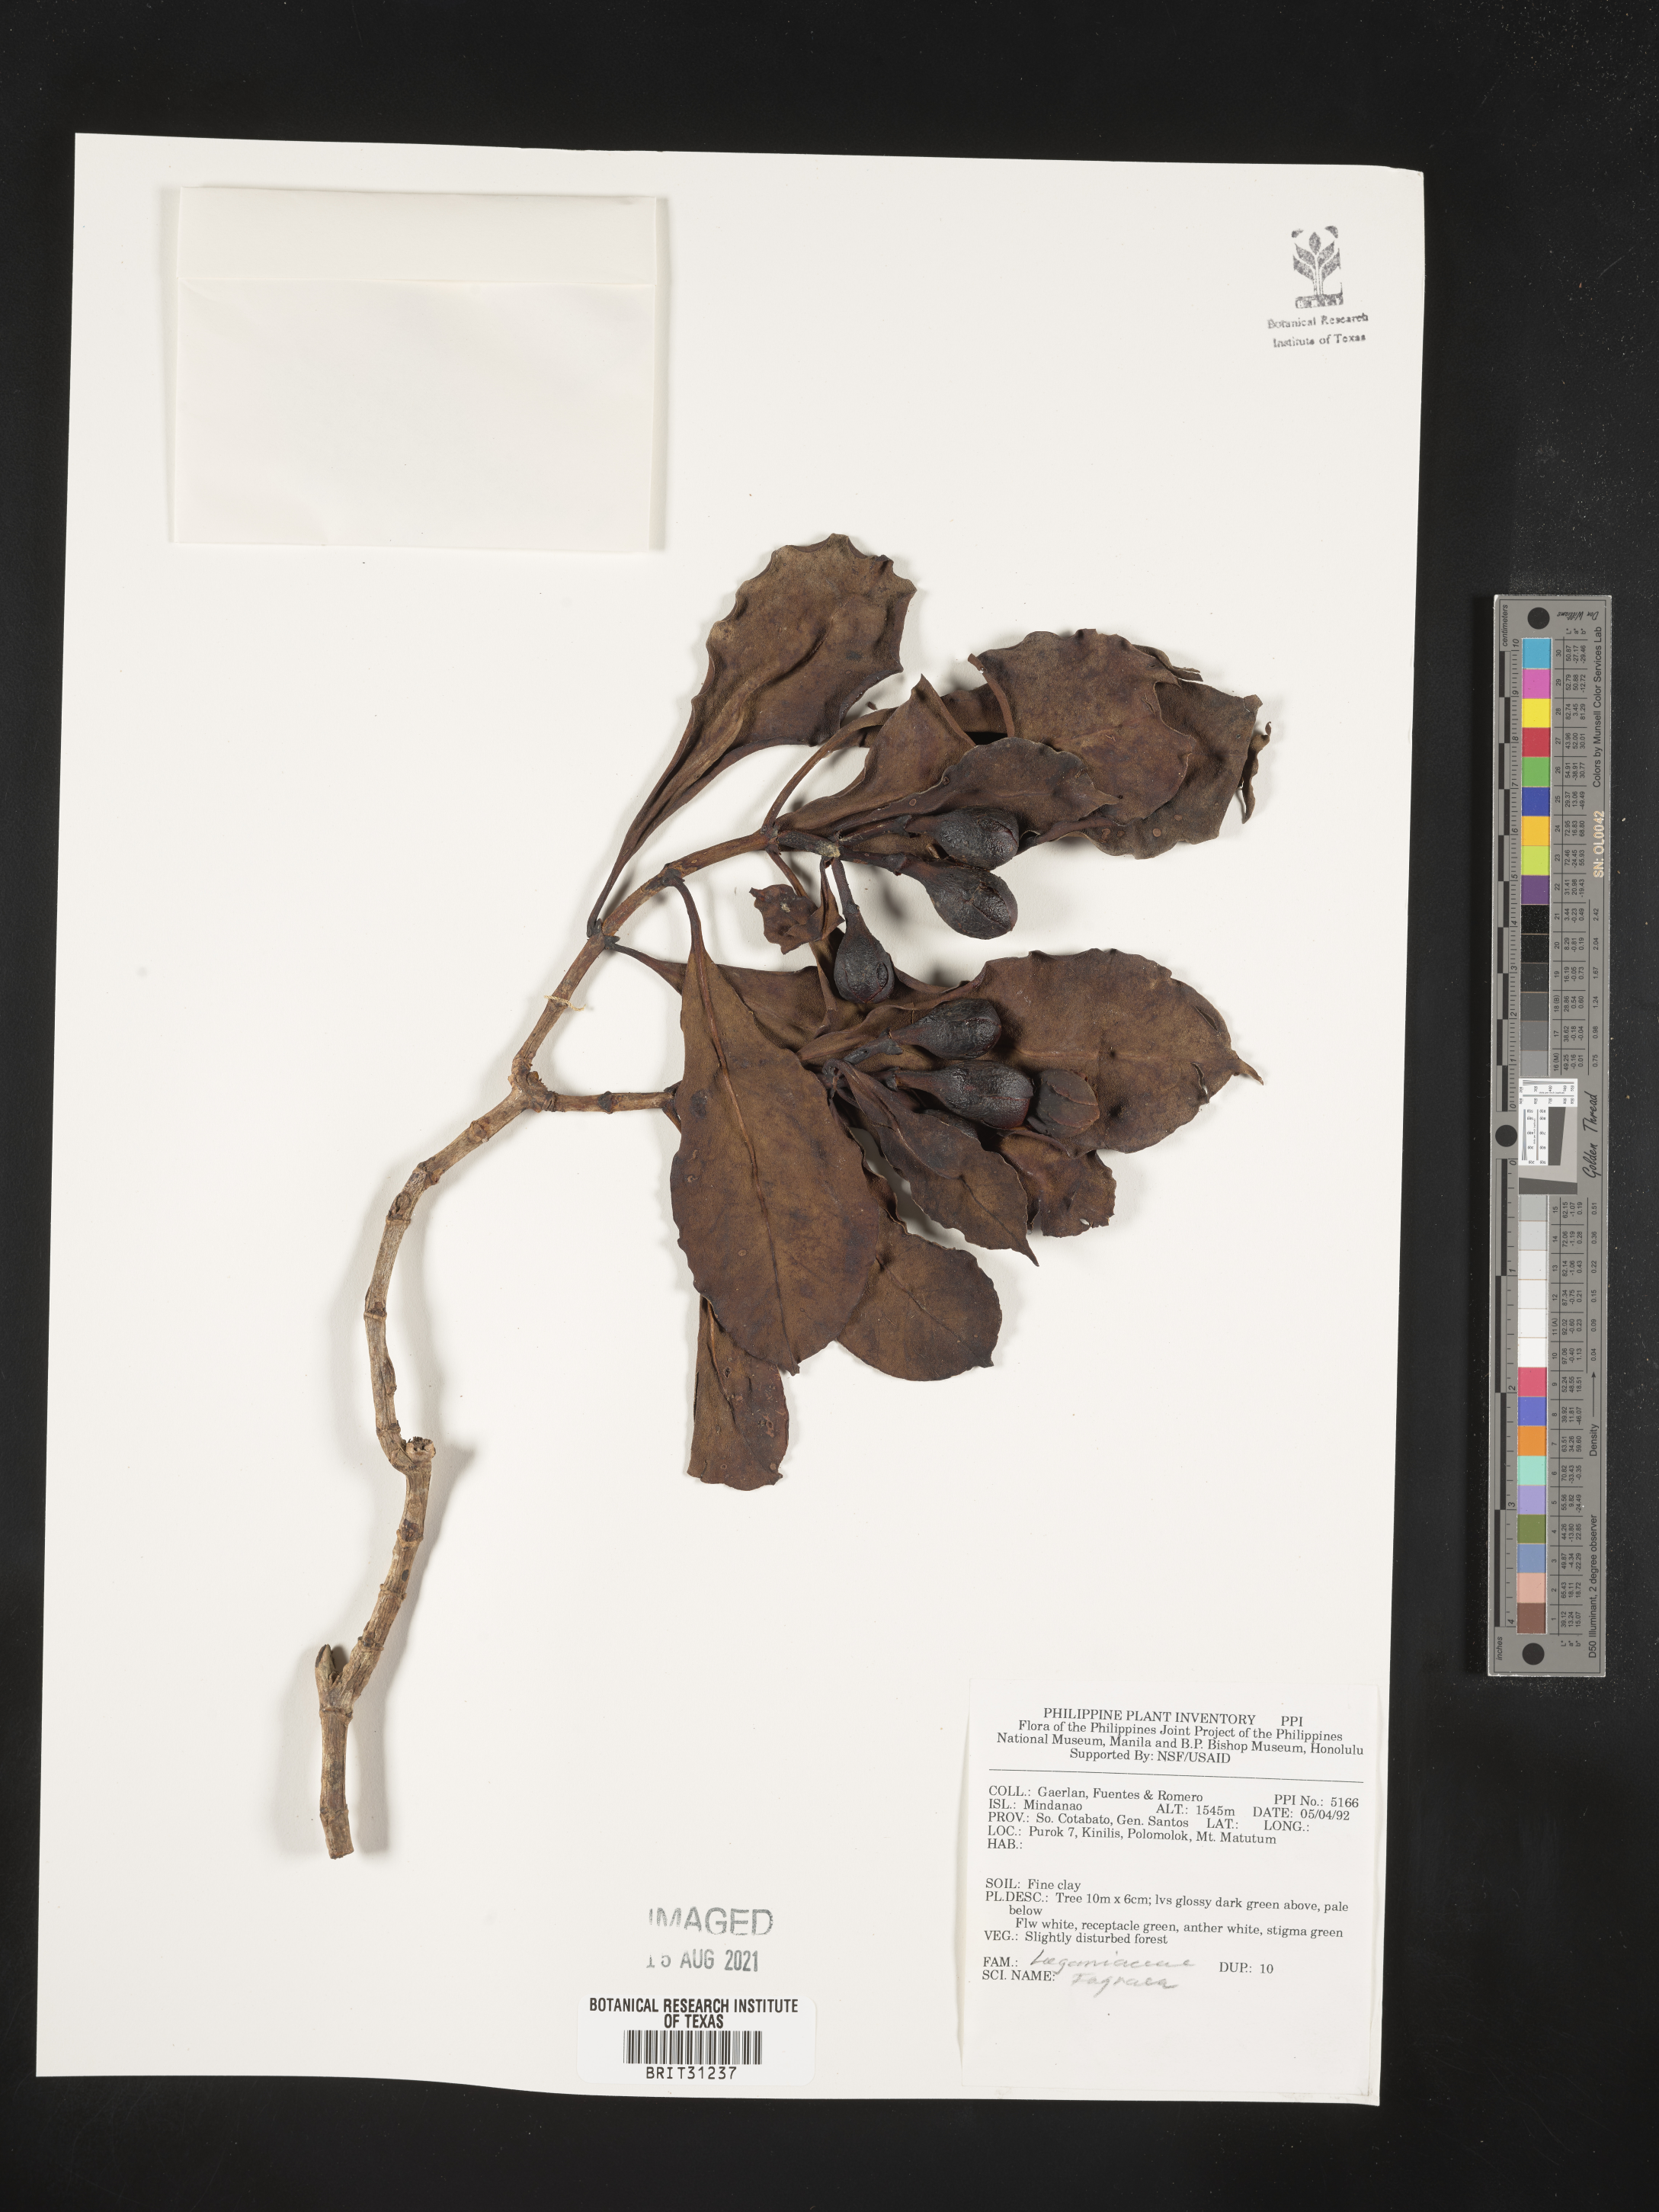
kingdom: Plantae
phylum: Tracheophyta
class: Magnoliopsida
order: Gentianales
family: Gentianaceae
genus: Fagraea
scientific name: Fagraea
